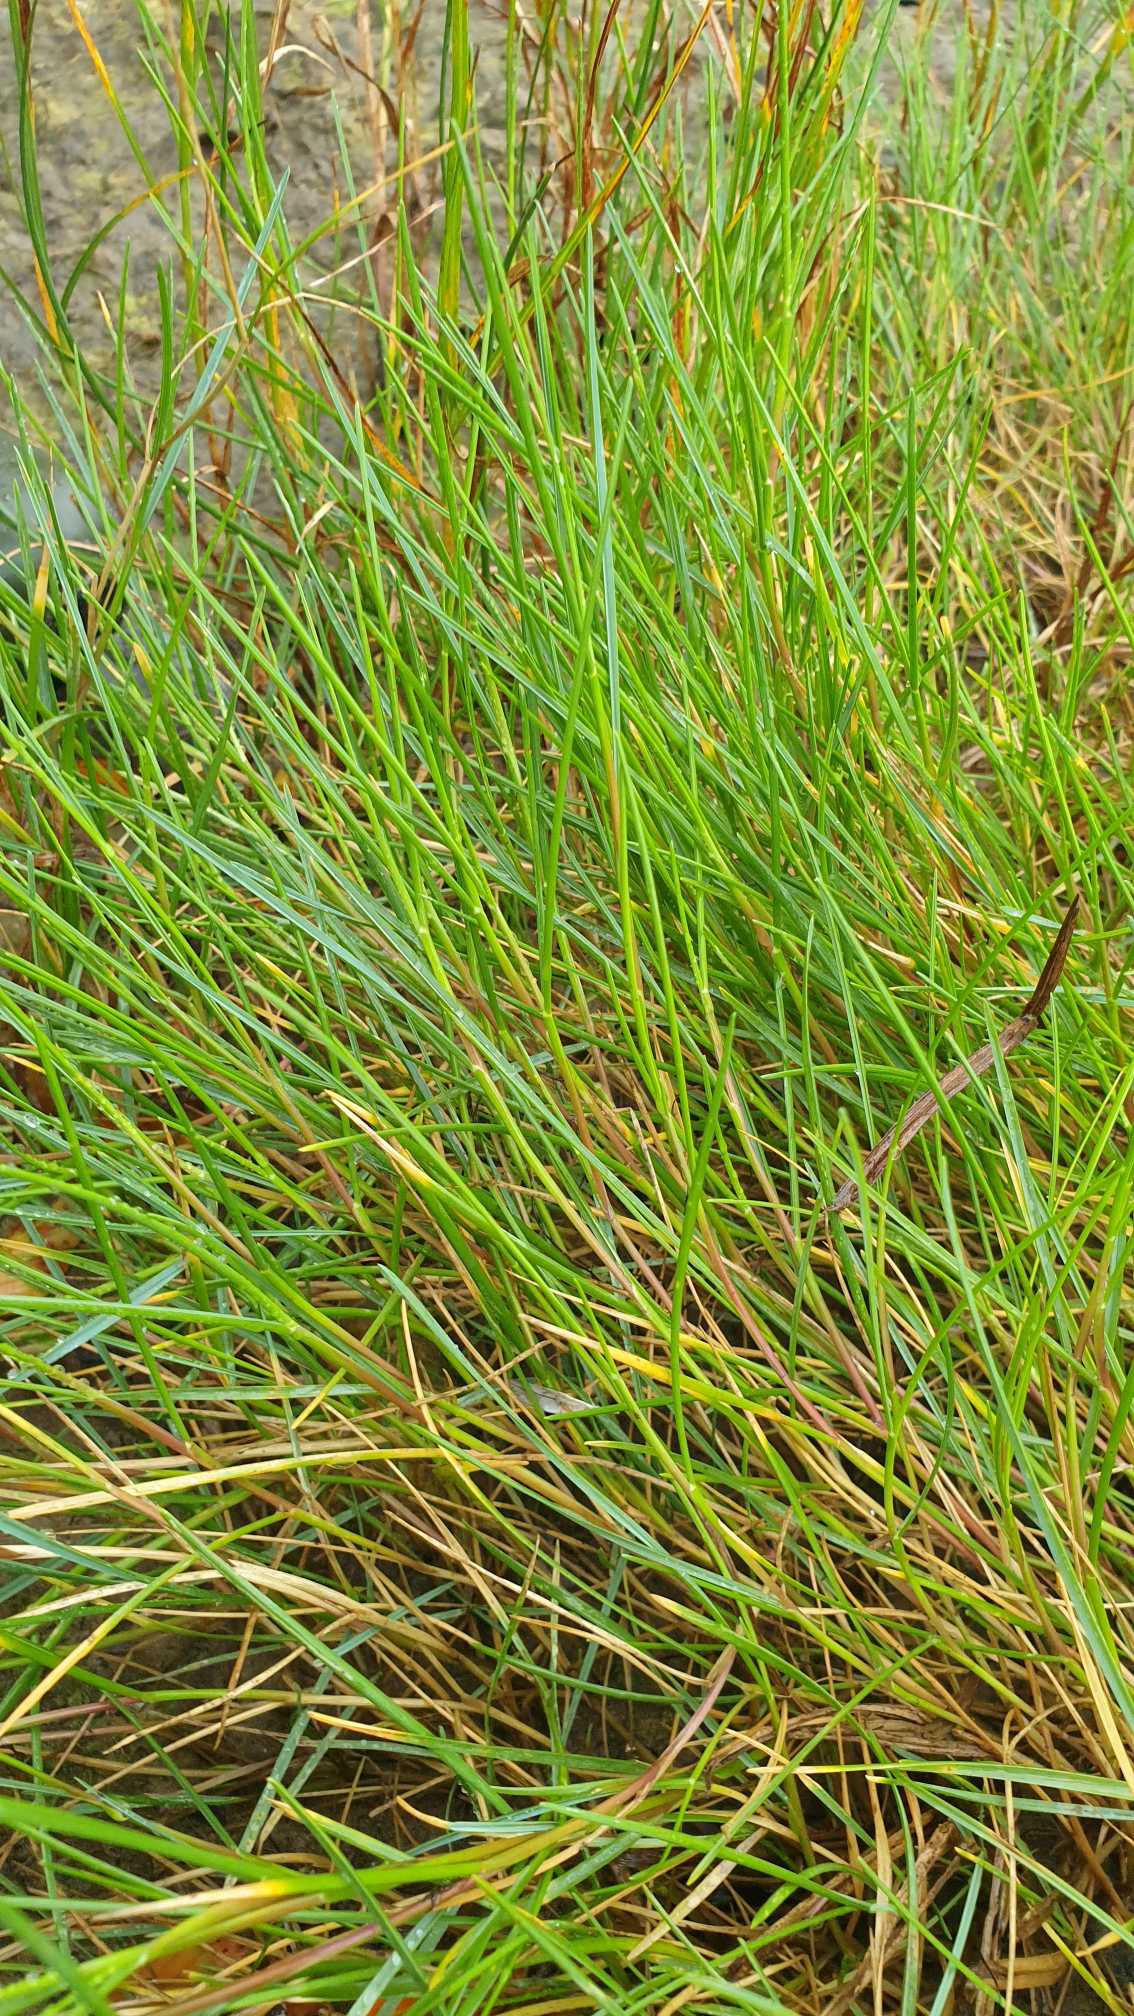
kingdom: Plantae
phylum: Tracheophyta
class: Liliopsida
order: Poales
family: Poaceae
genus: Puccinellia
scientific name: Puccinellia maritima
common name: Strand-annelgræs
